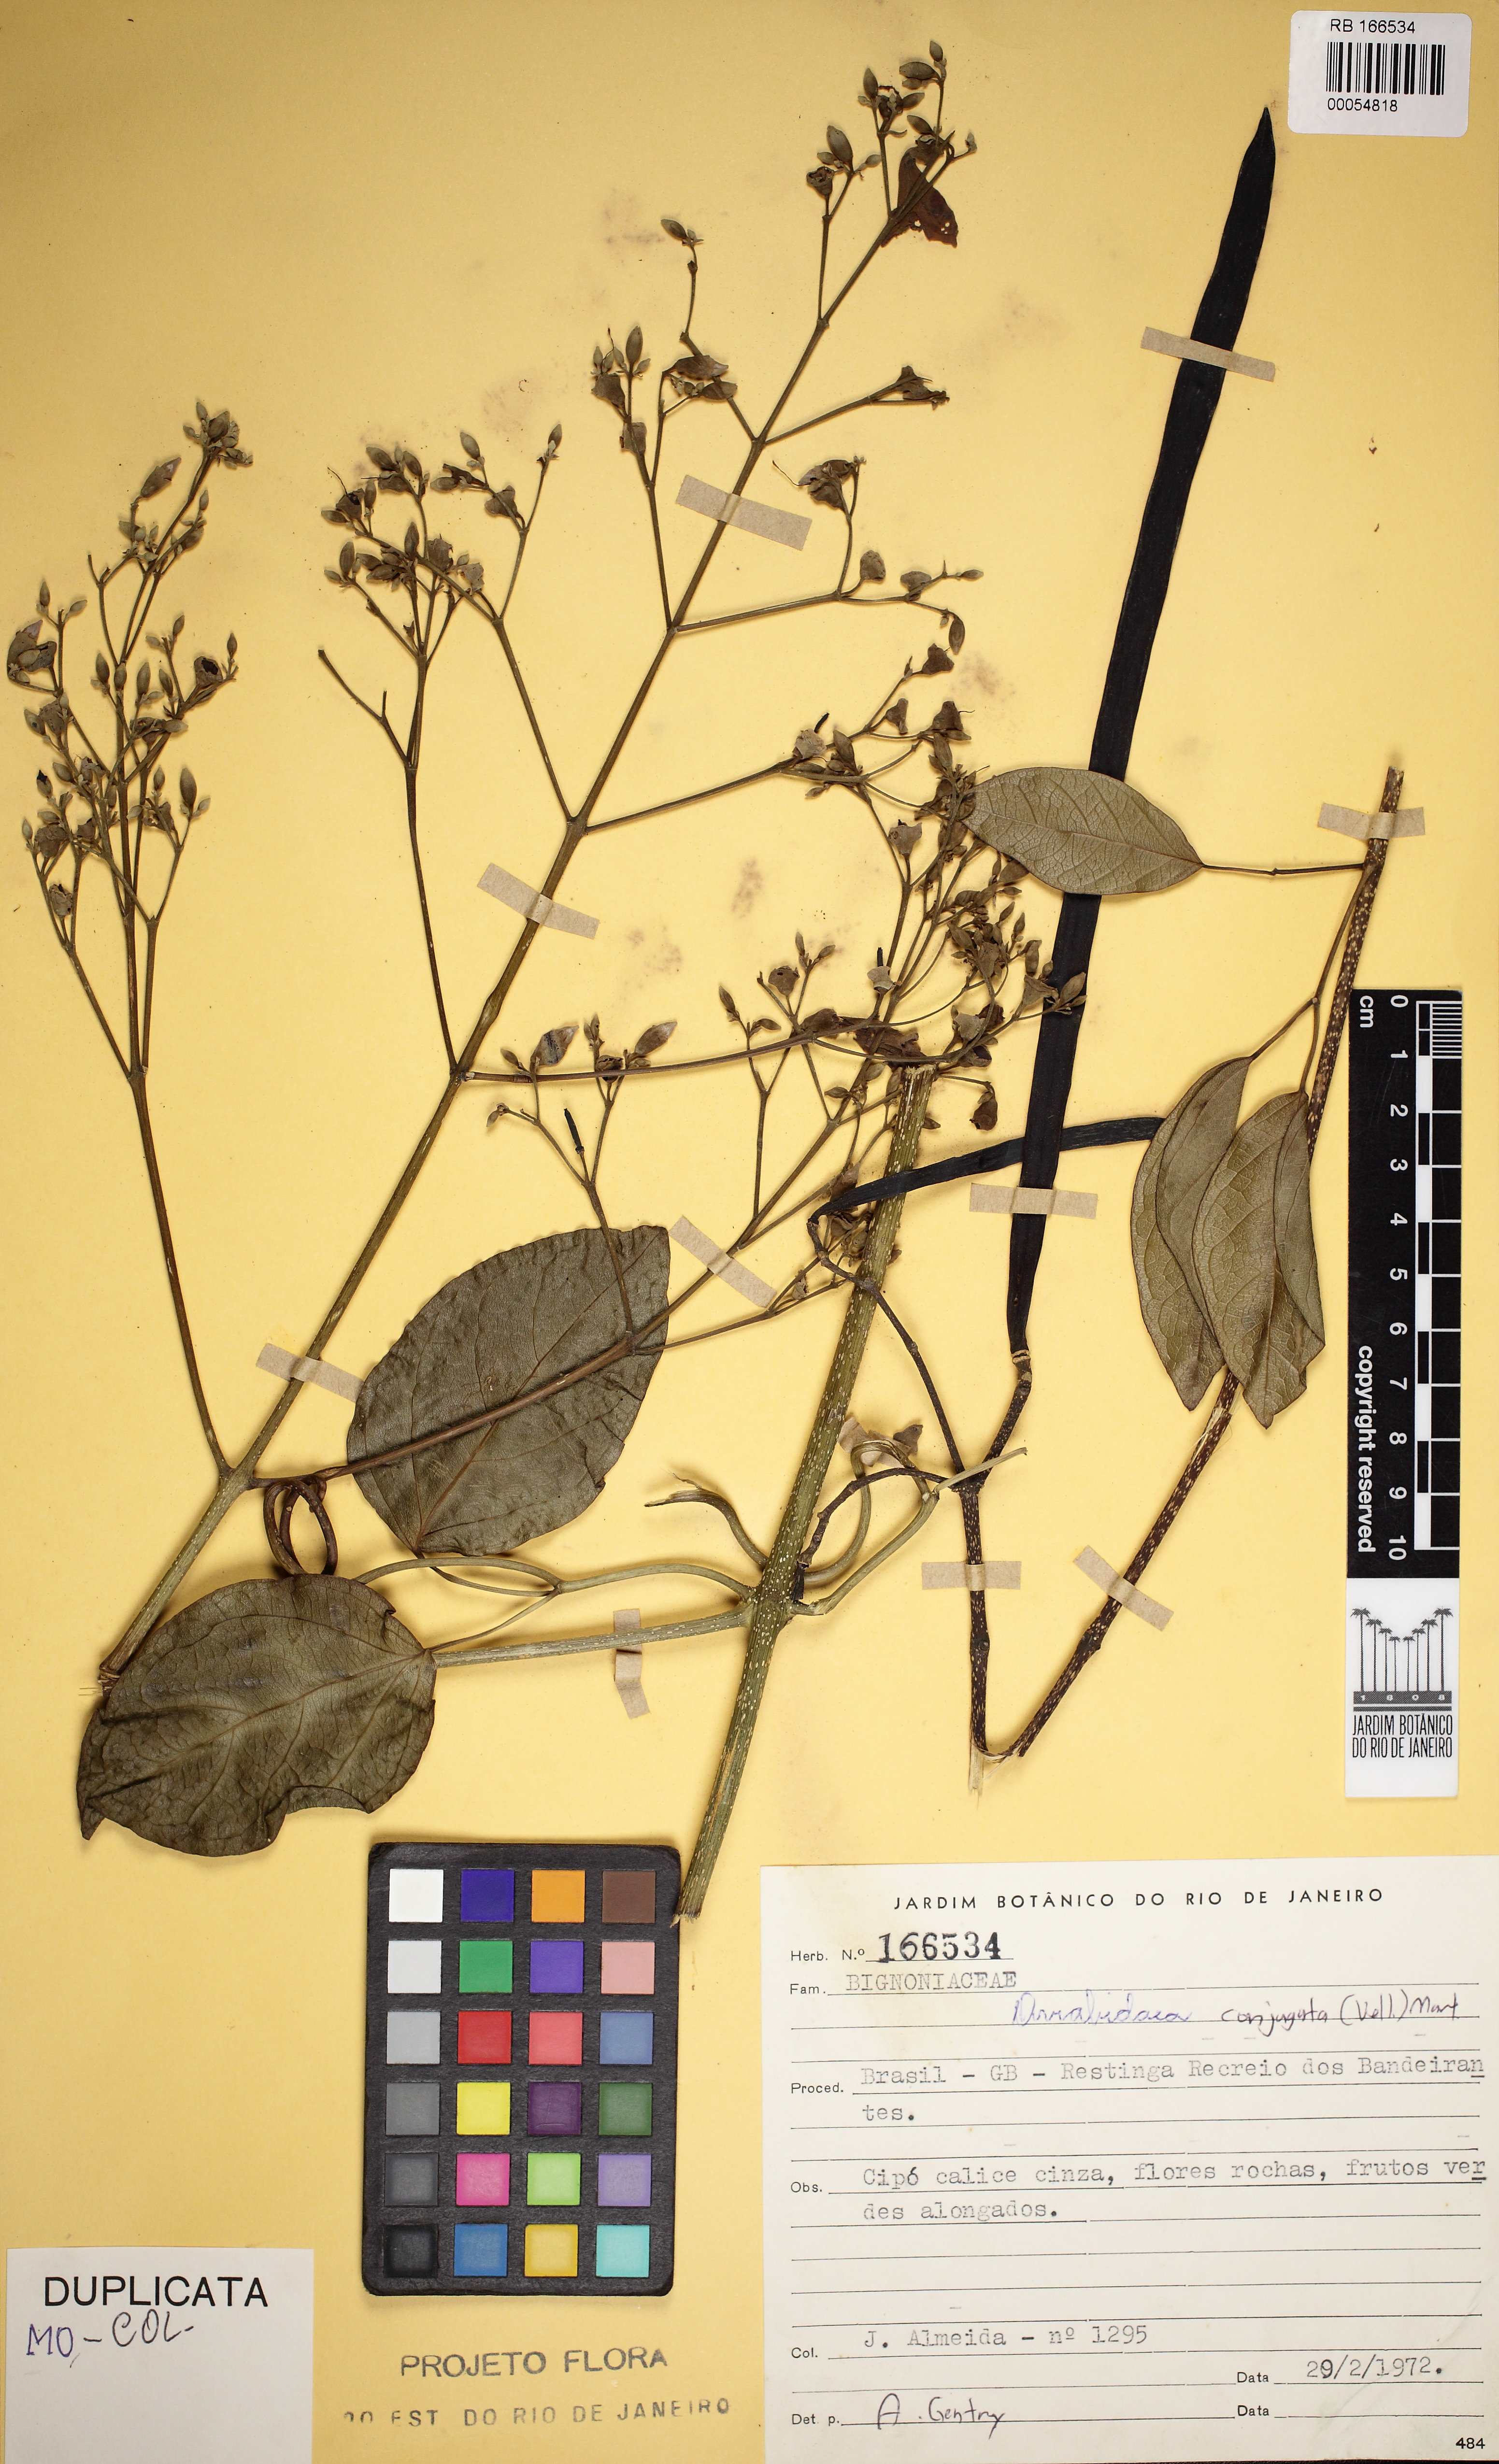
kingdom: Plantae
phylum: Tracheophyta
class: Magnoliopsida
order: Lamiales
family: Bignoniaceae
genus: Fridericia
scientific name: Fridericia conjugata
